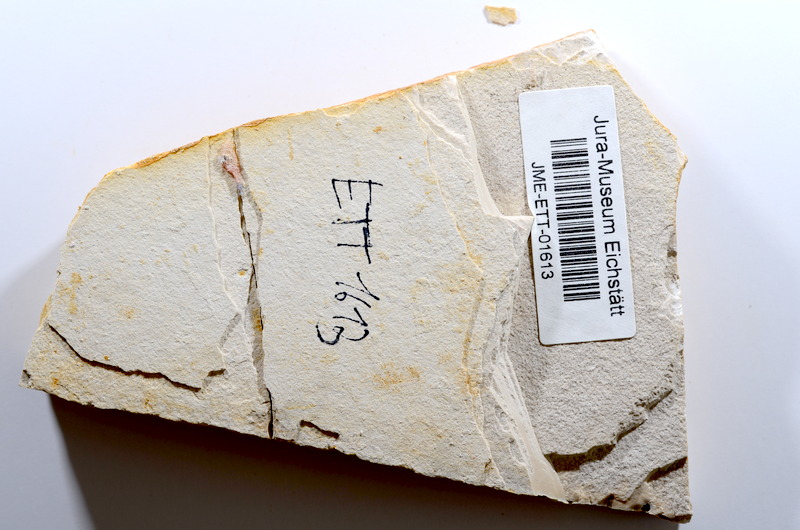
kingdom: Animalia
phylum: Chordata
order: Salmoniformes
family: Orthogonikleithridae
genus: Orthogonikleithrus
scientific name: Orthogonikleithrus hoelli
